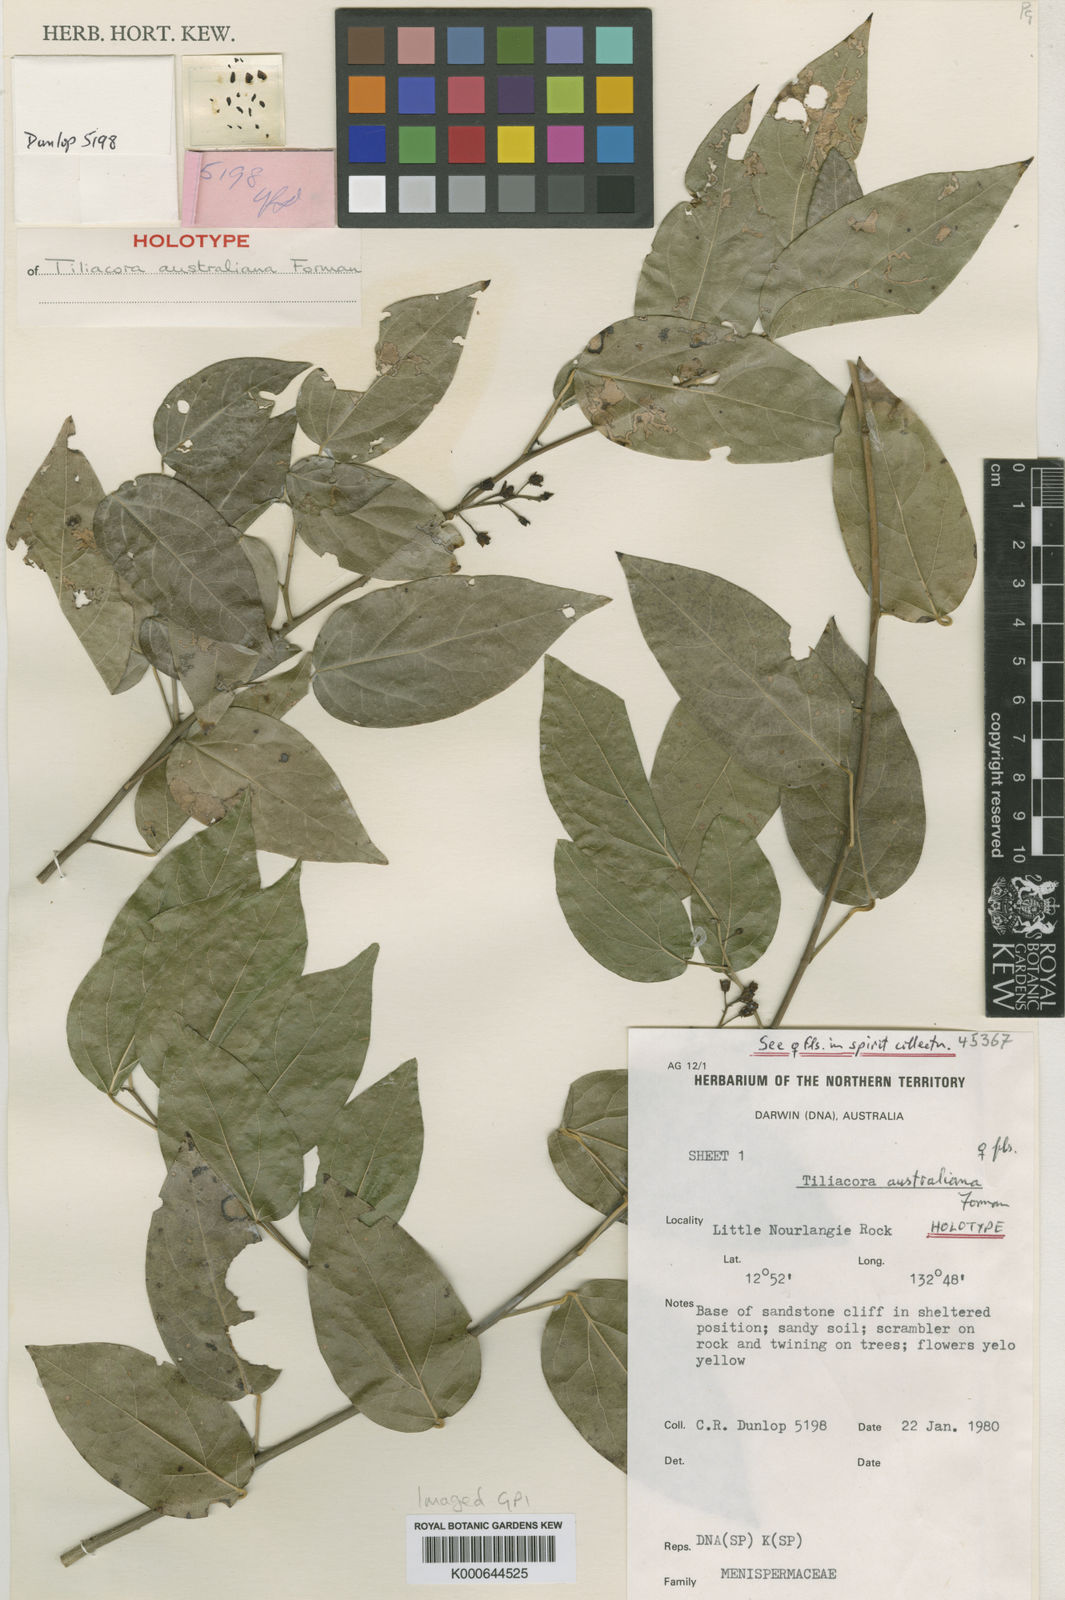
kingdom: Plantae
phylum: Tracheophyta
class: Magnoliopsida
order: Ranunculales
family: Menispermaceae
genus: Tiliacora
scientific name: Tiliacora australiana
